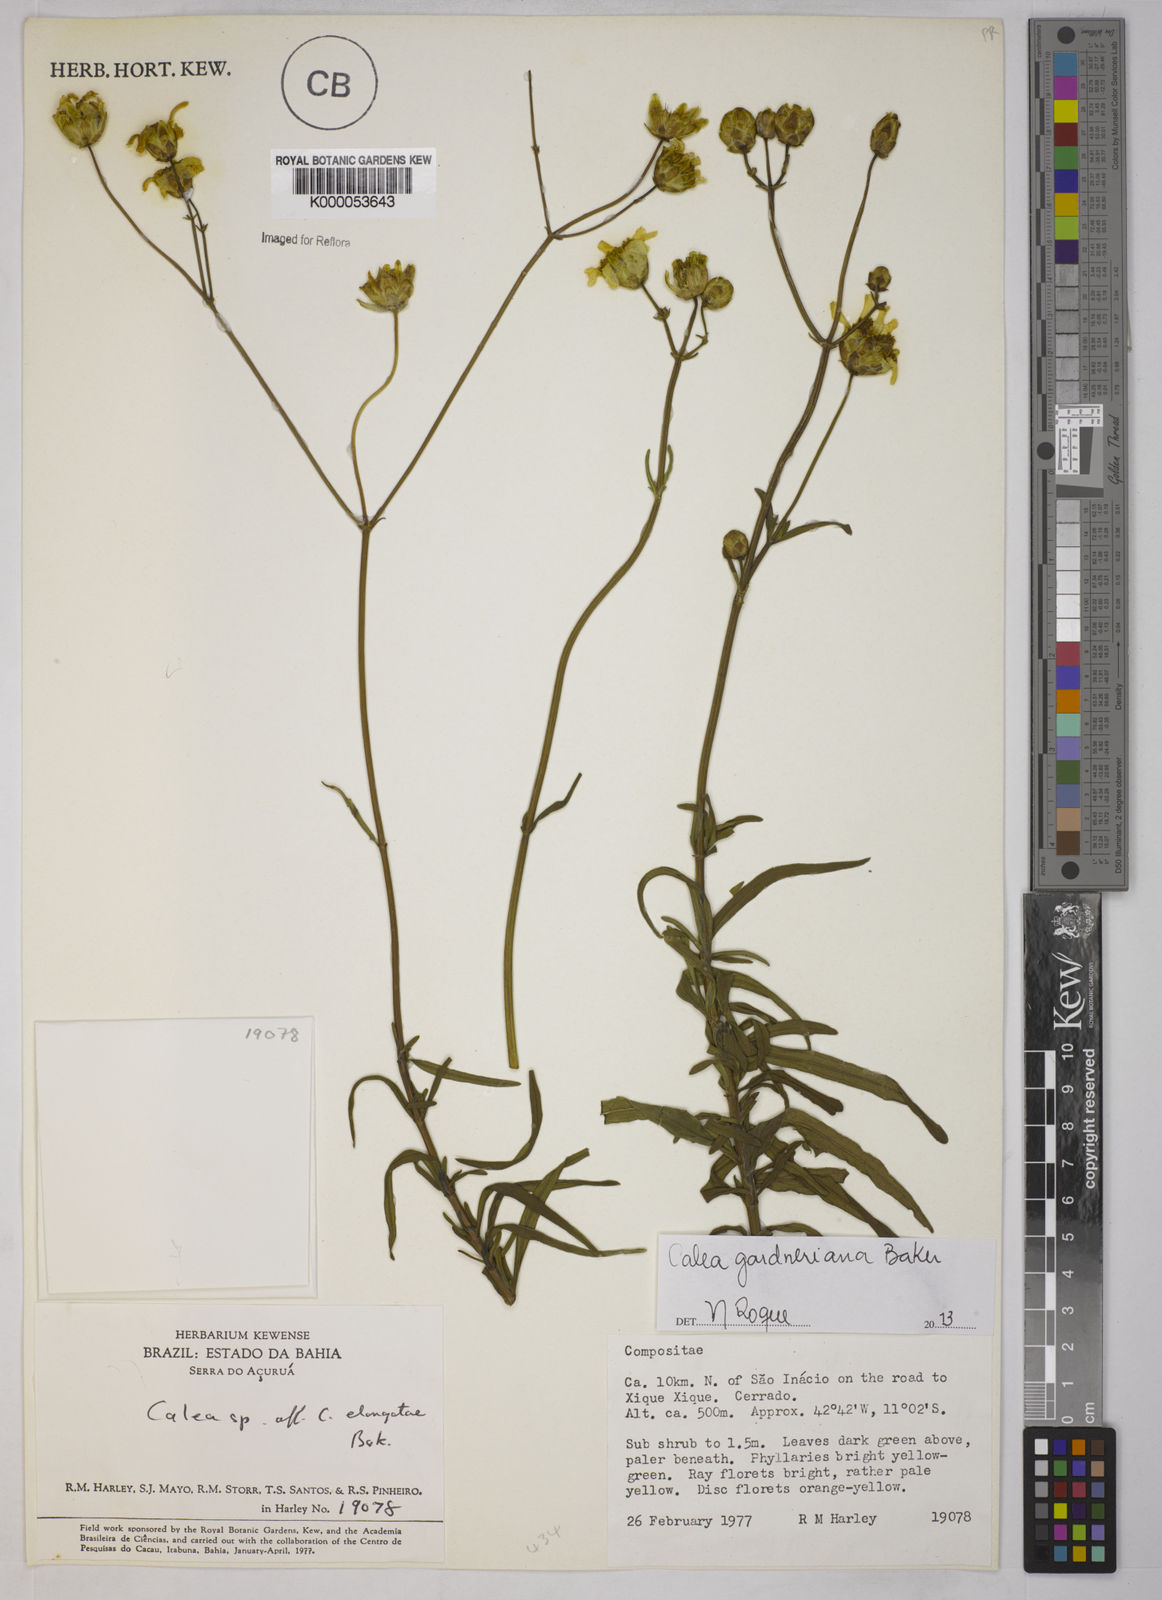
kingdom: Plantae
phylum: Tracheophyta
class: Magnoliopsida
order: Asterales
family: Asteraceae
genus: Calea
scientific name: Calea elongata
